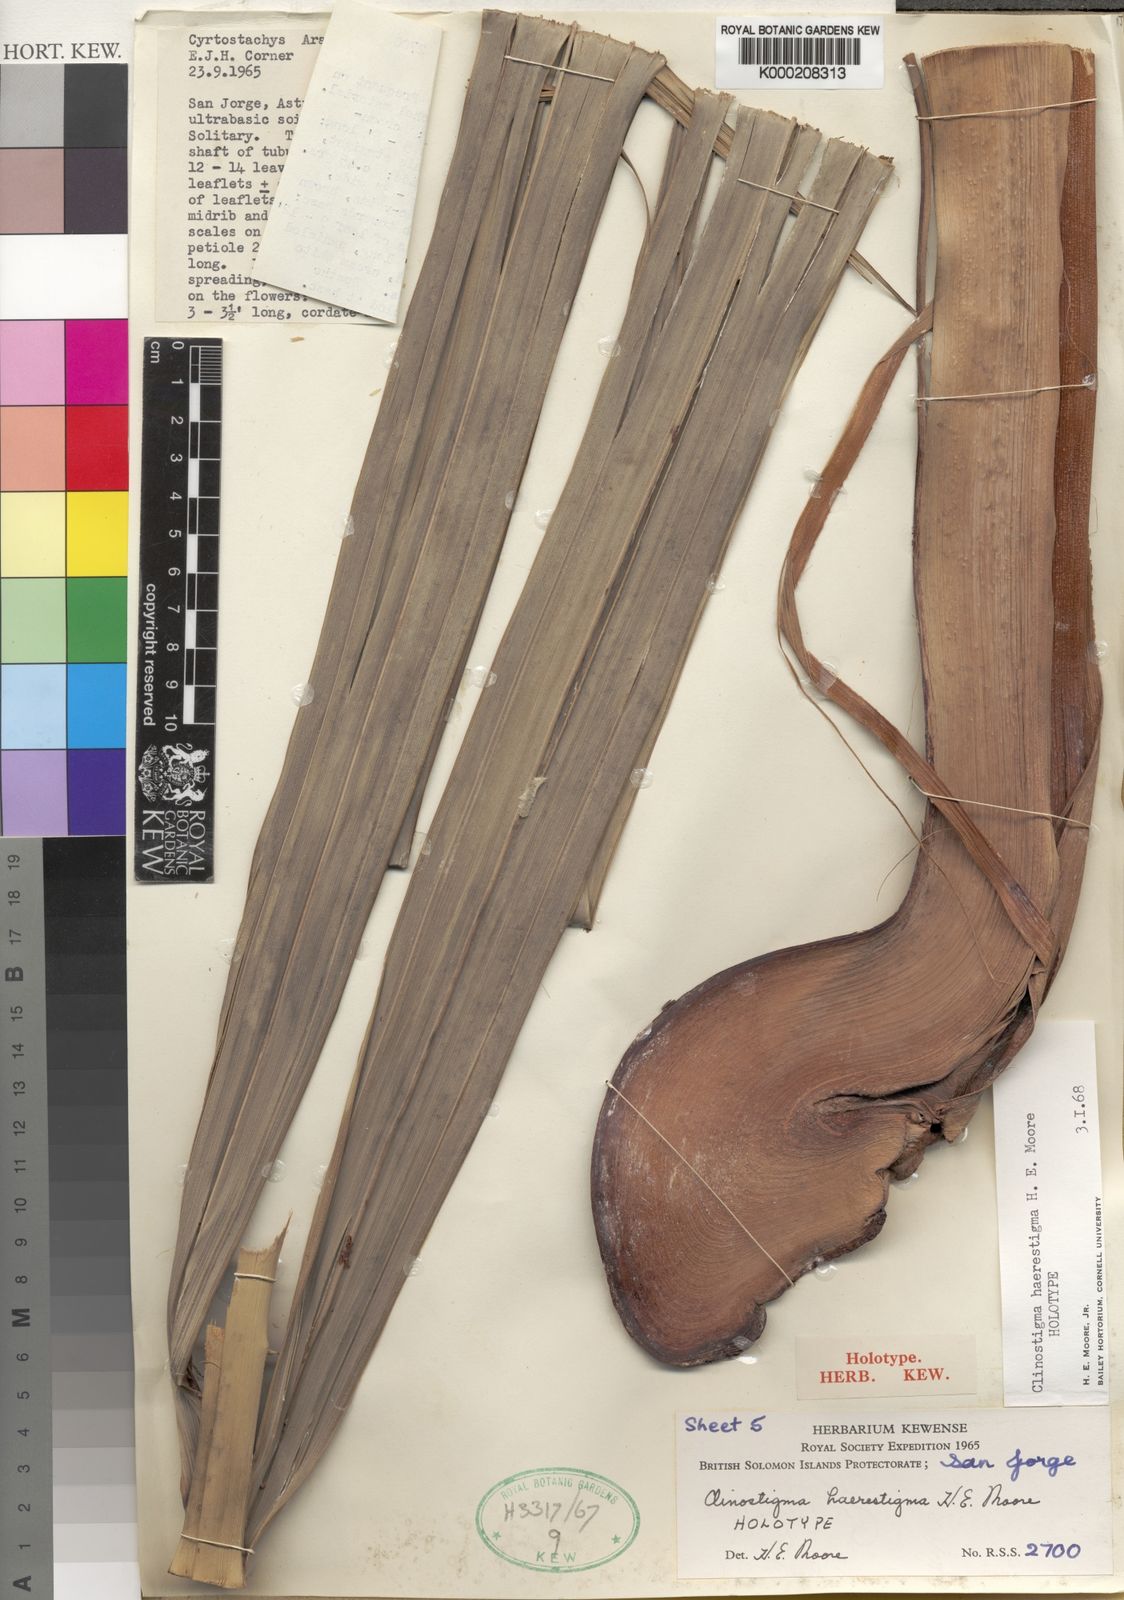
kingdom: Plantae
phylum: Tracheophyta
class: Liliopsida
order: Arecales
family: Arecaceae
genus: Clinostigma
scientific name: Clinostigma haerestigma
